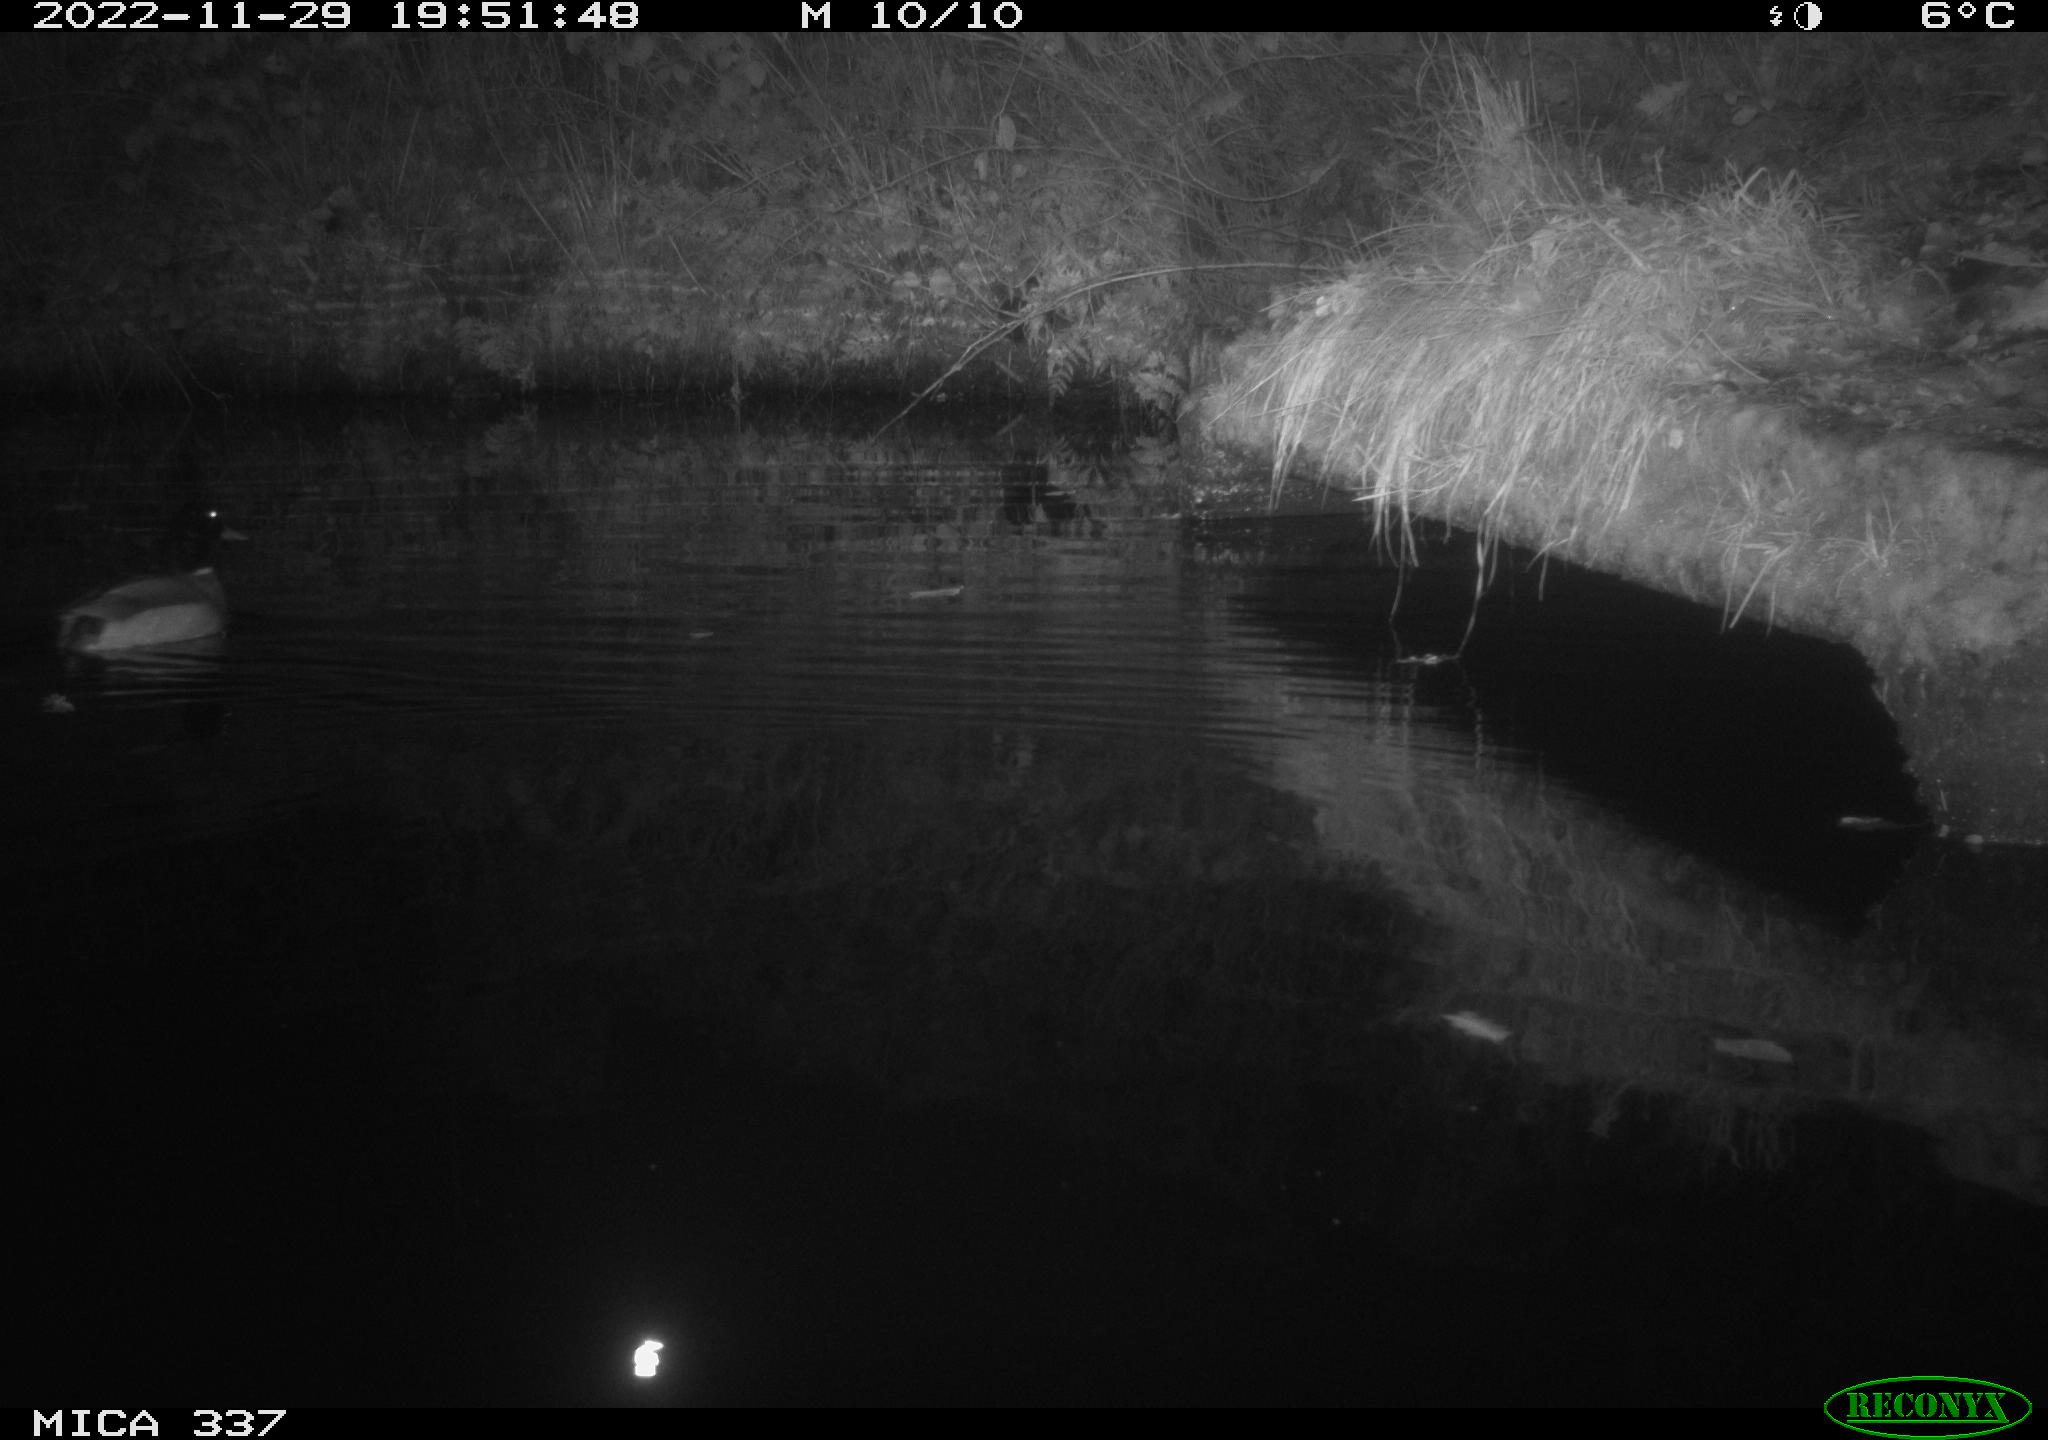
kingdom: Animalia
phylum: Chordata
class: Aves
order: Anseriformes
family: Anatidae
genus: Anas
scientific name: Anas platyrhynchos
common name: Mallard
